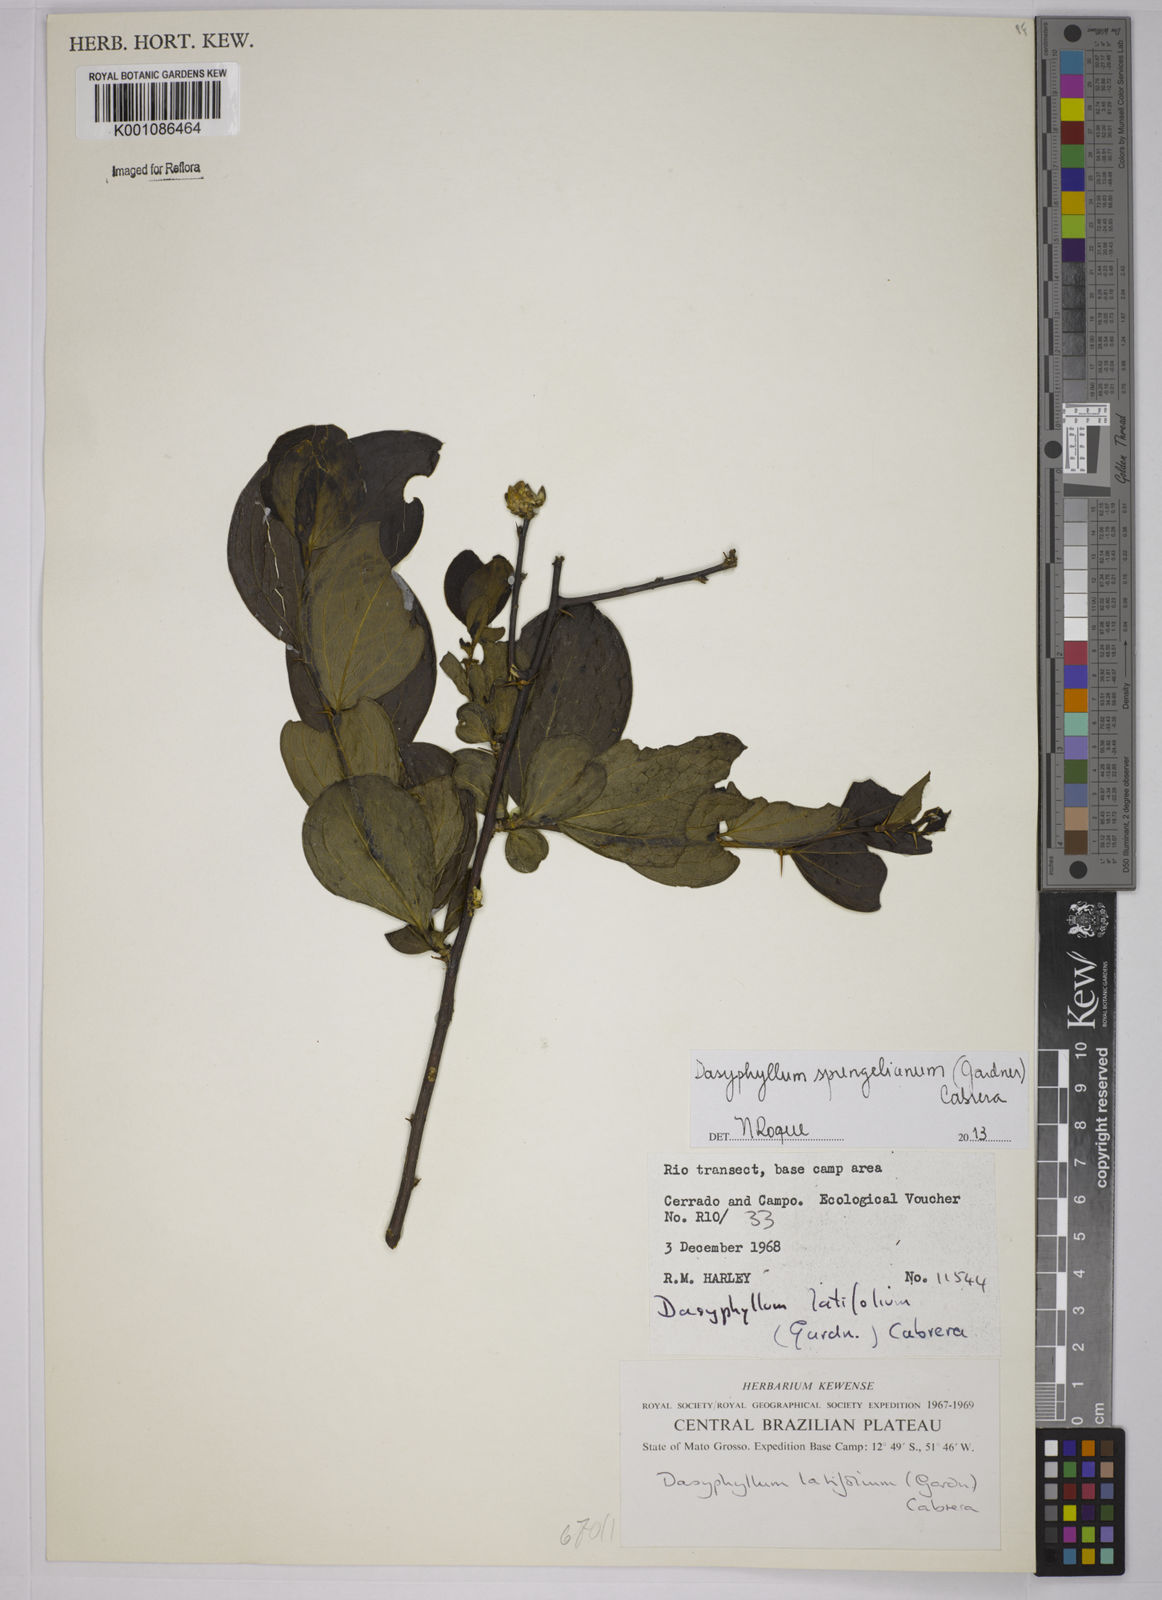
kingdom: Plantae
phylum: Tracheophyta
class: Magnoliopsida
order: Asterales
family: Asteraceae
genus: Dasyphyllum
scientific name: Dasyphyllum sprengelianum
